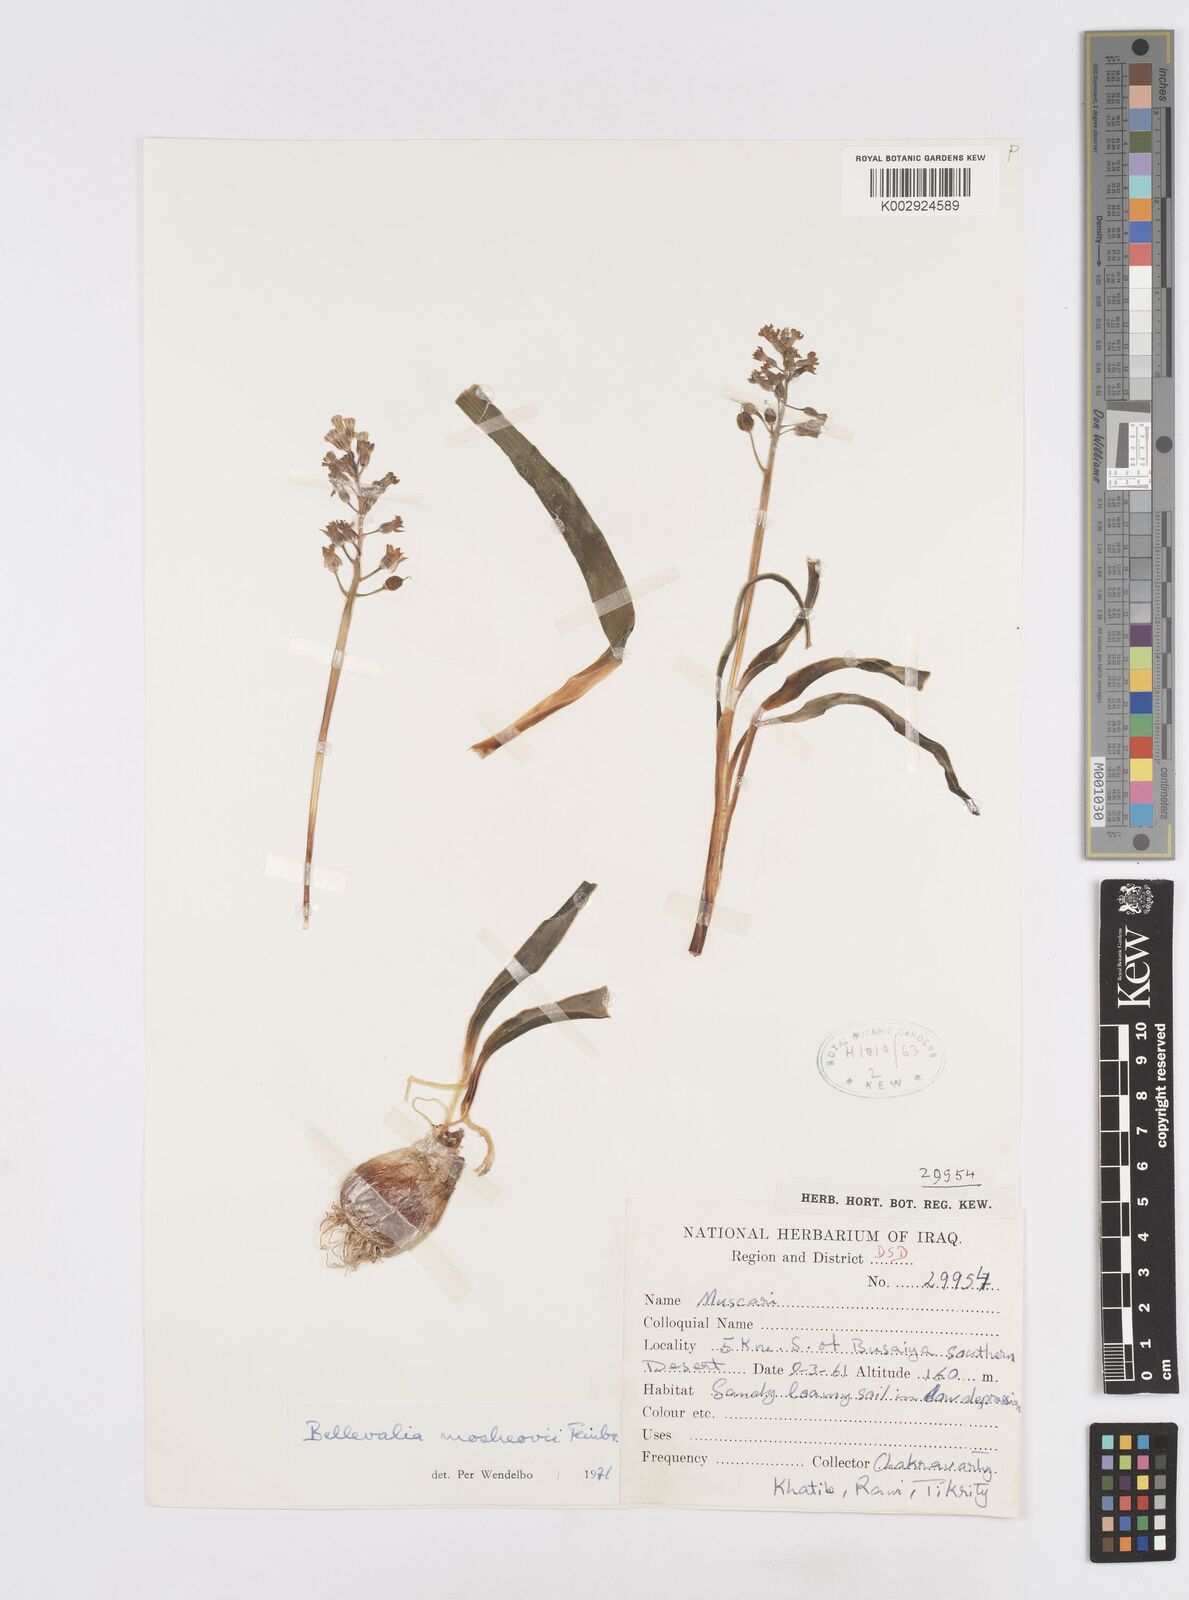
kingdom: Plantae
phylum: Tracheophyta
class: Liliopsida
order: Asparagales
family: Asparagaceae
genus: Bellevalia
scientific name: Bellevalia mosheovii
